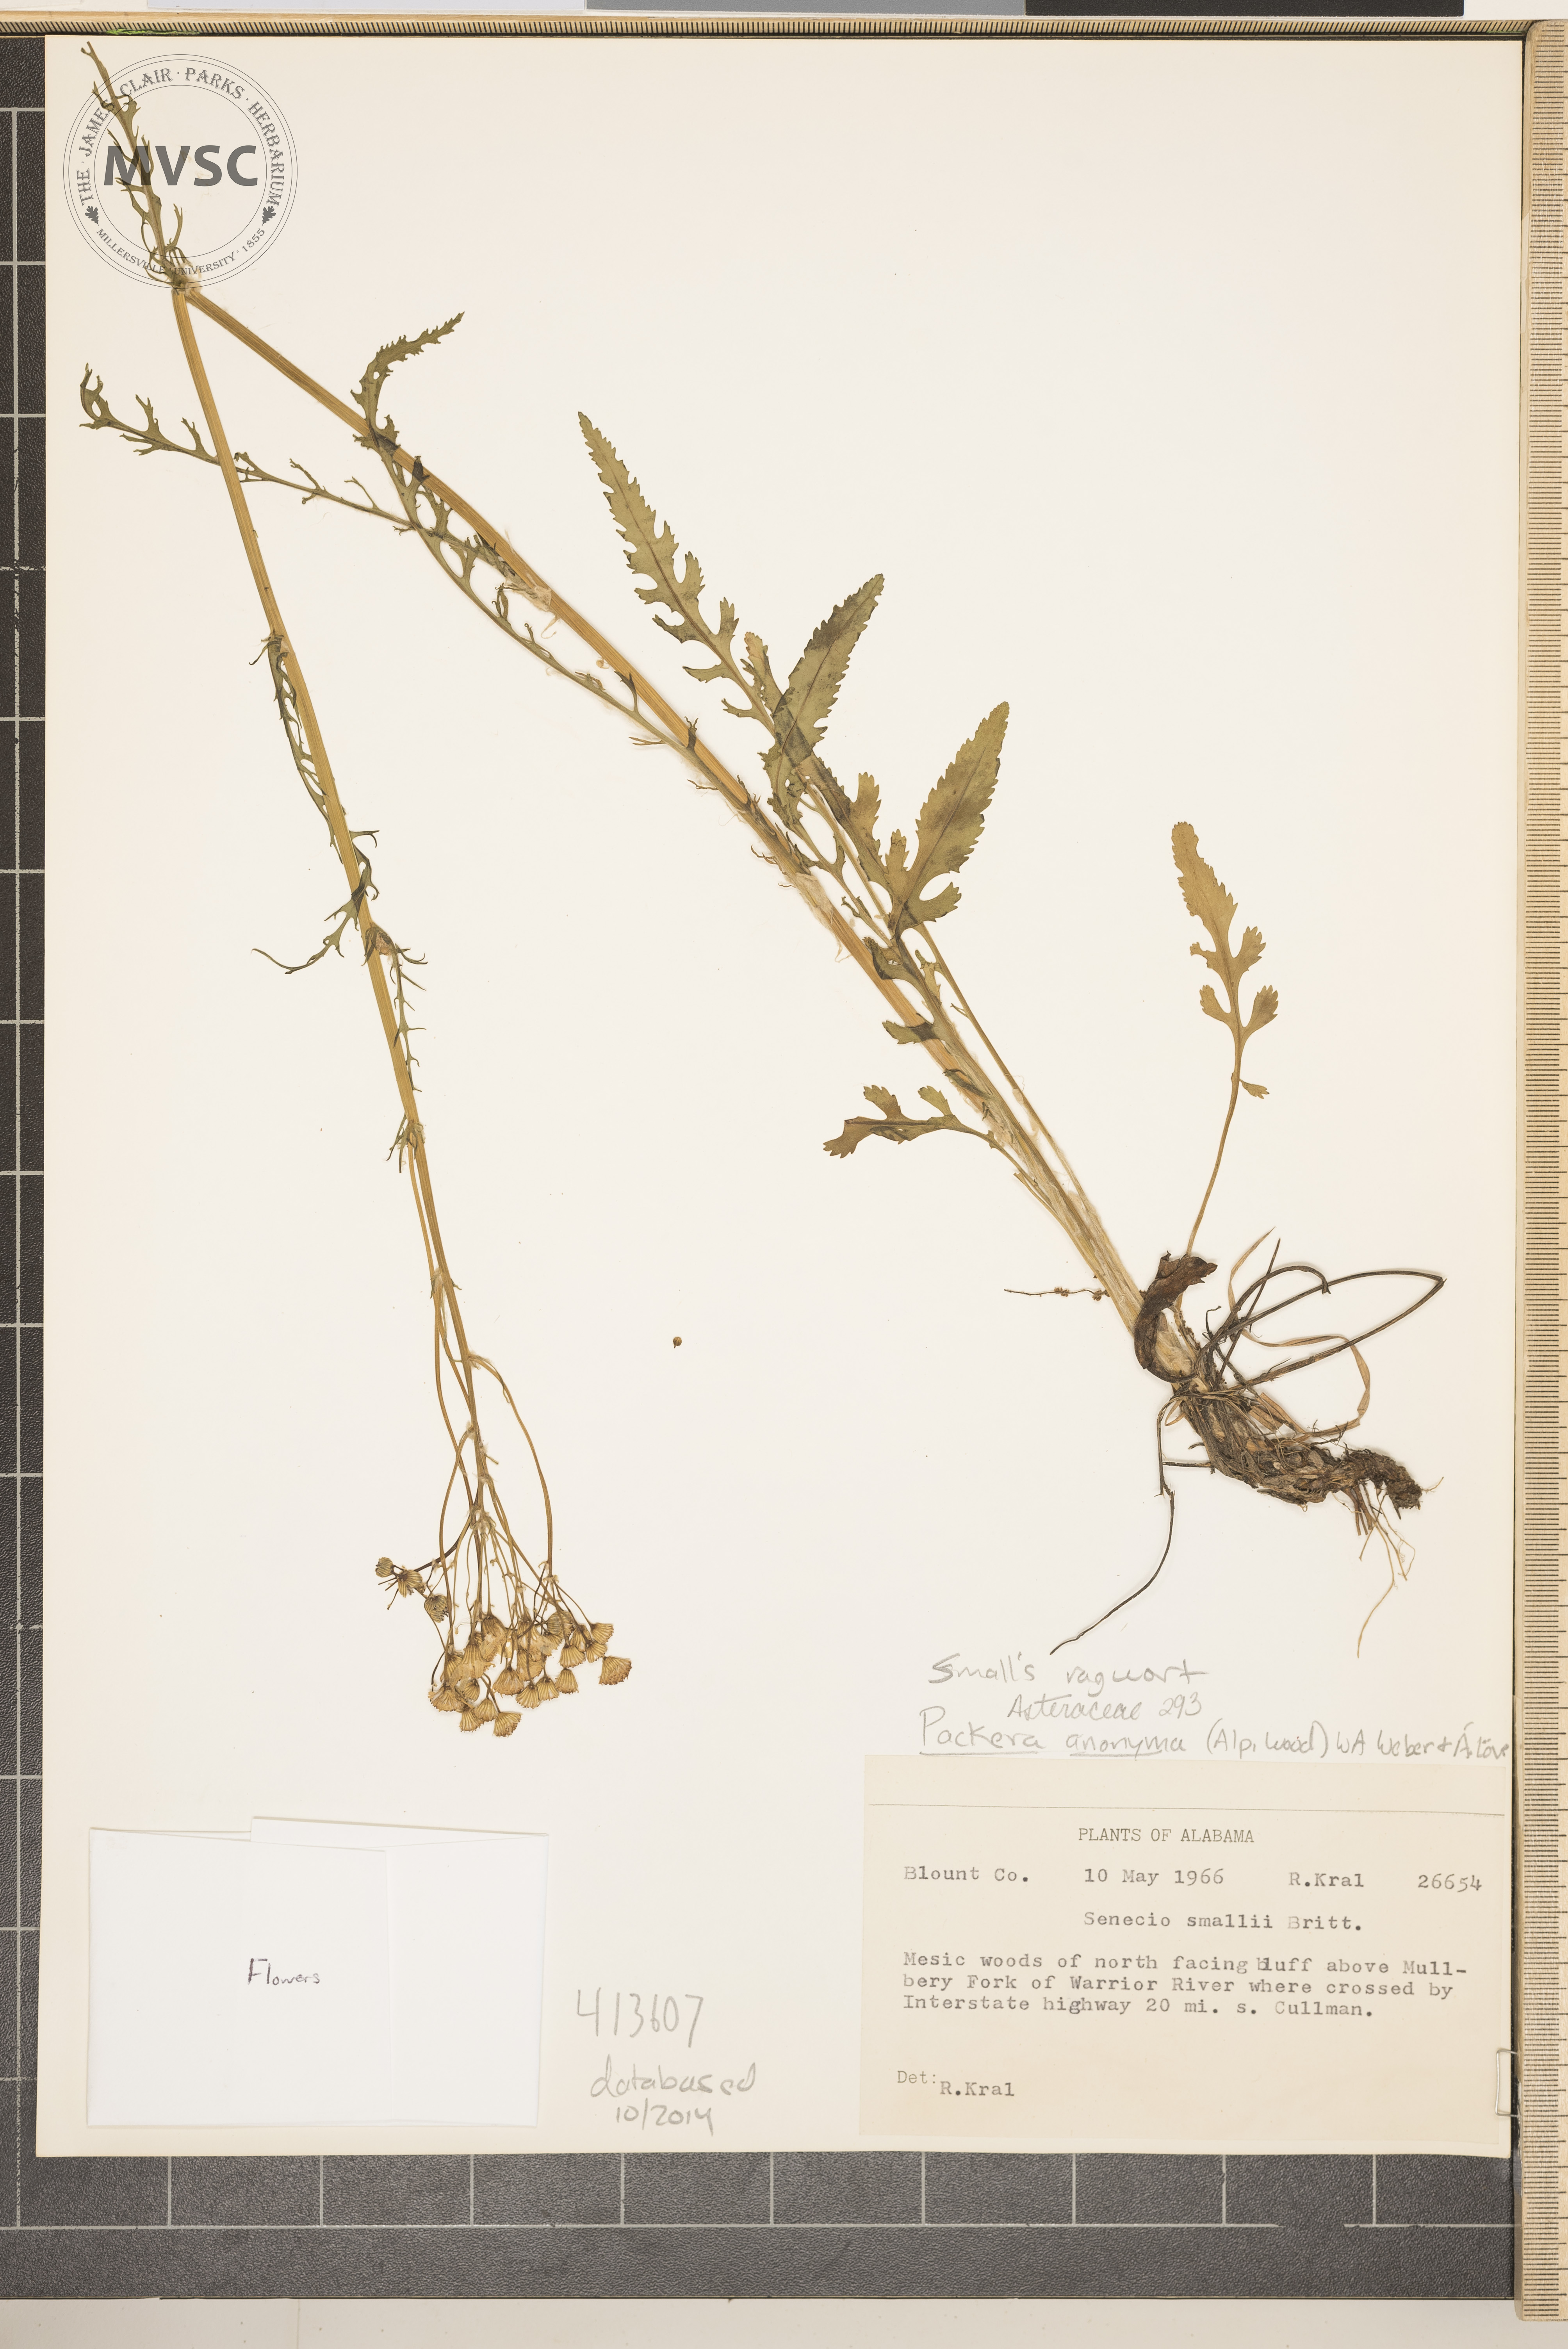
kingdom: Plantae
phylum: Tracheophyta
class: Magnoliopsida
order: Asterales
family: Asteraceae
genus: Packera
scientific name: Packera anonyma
